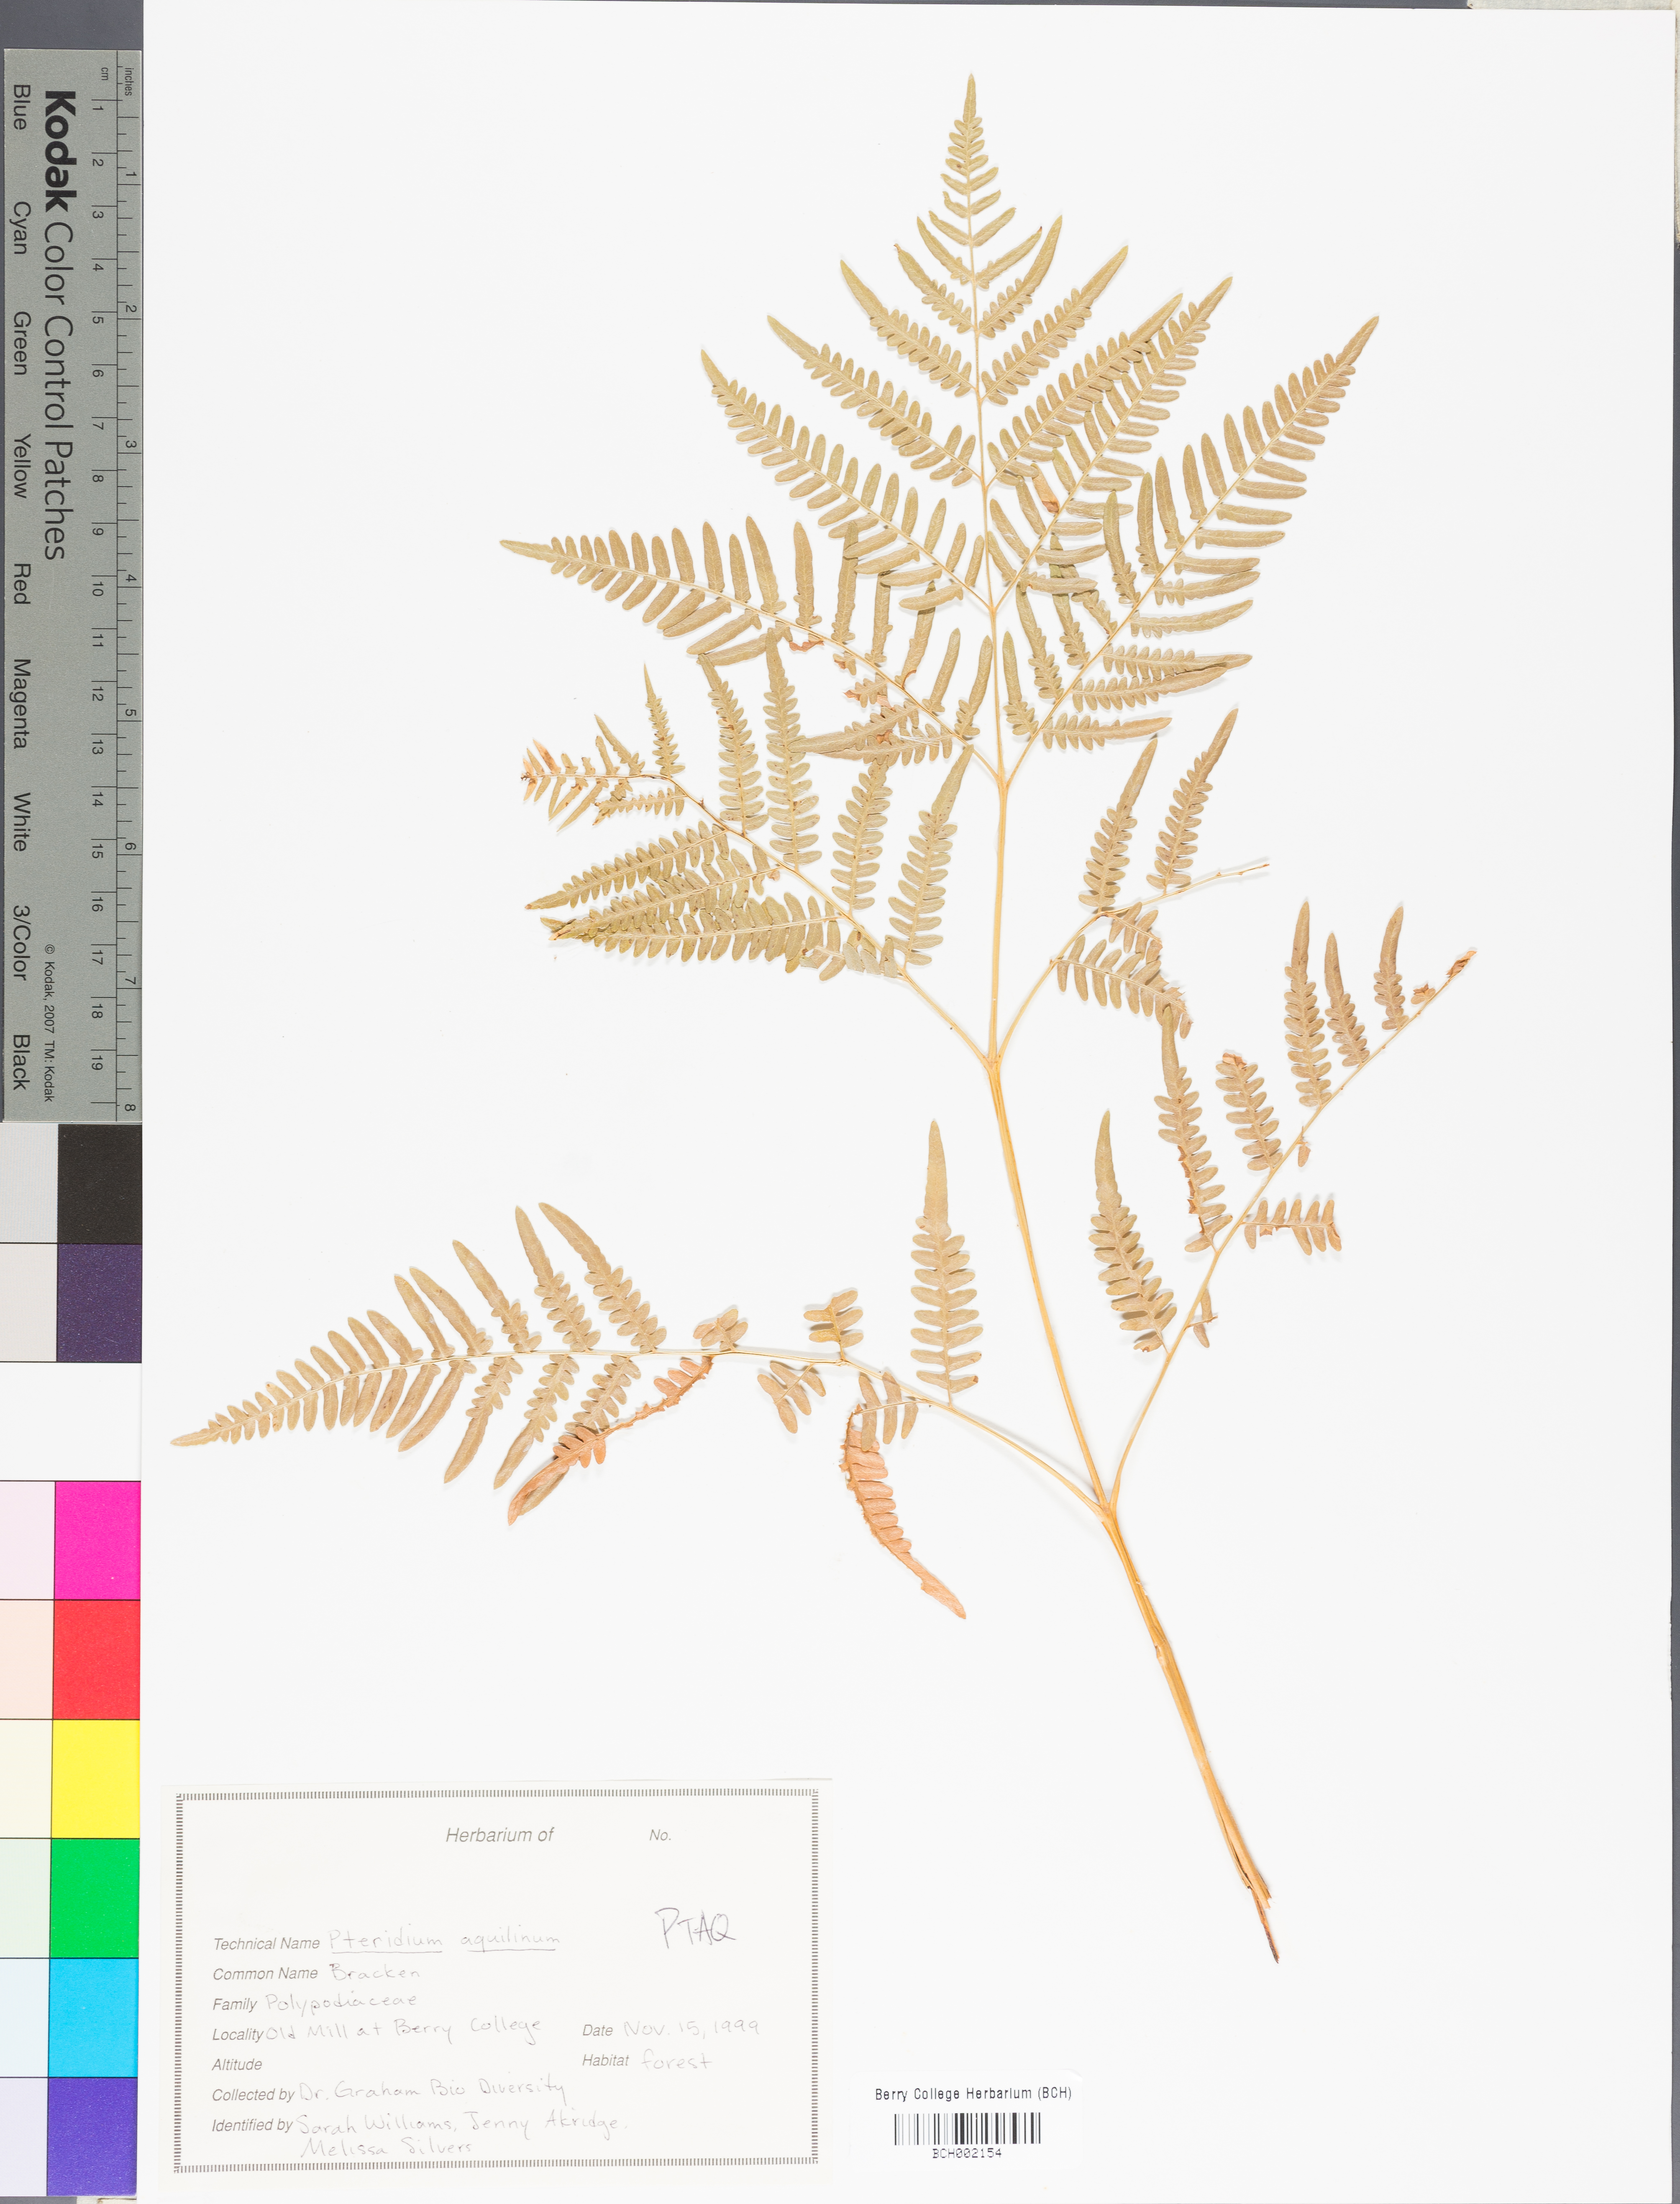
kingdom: Plantae
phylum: Tracheophyta
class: Polypodiopsida
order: Polypodiales
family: Dennstaedtiaceae
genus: Pteridium
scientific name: Pteridium aquilinum
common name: Bracken
